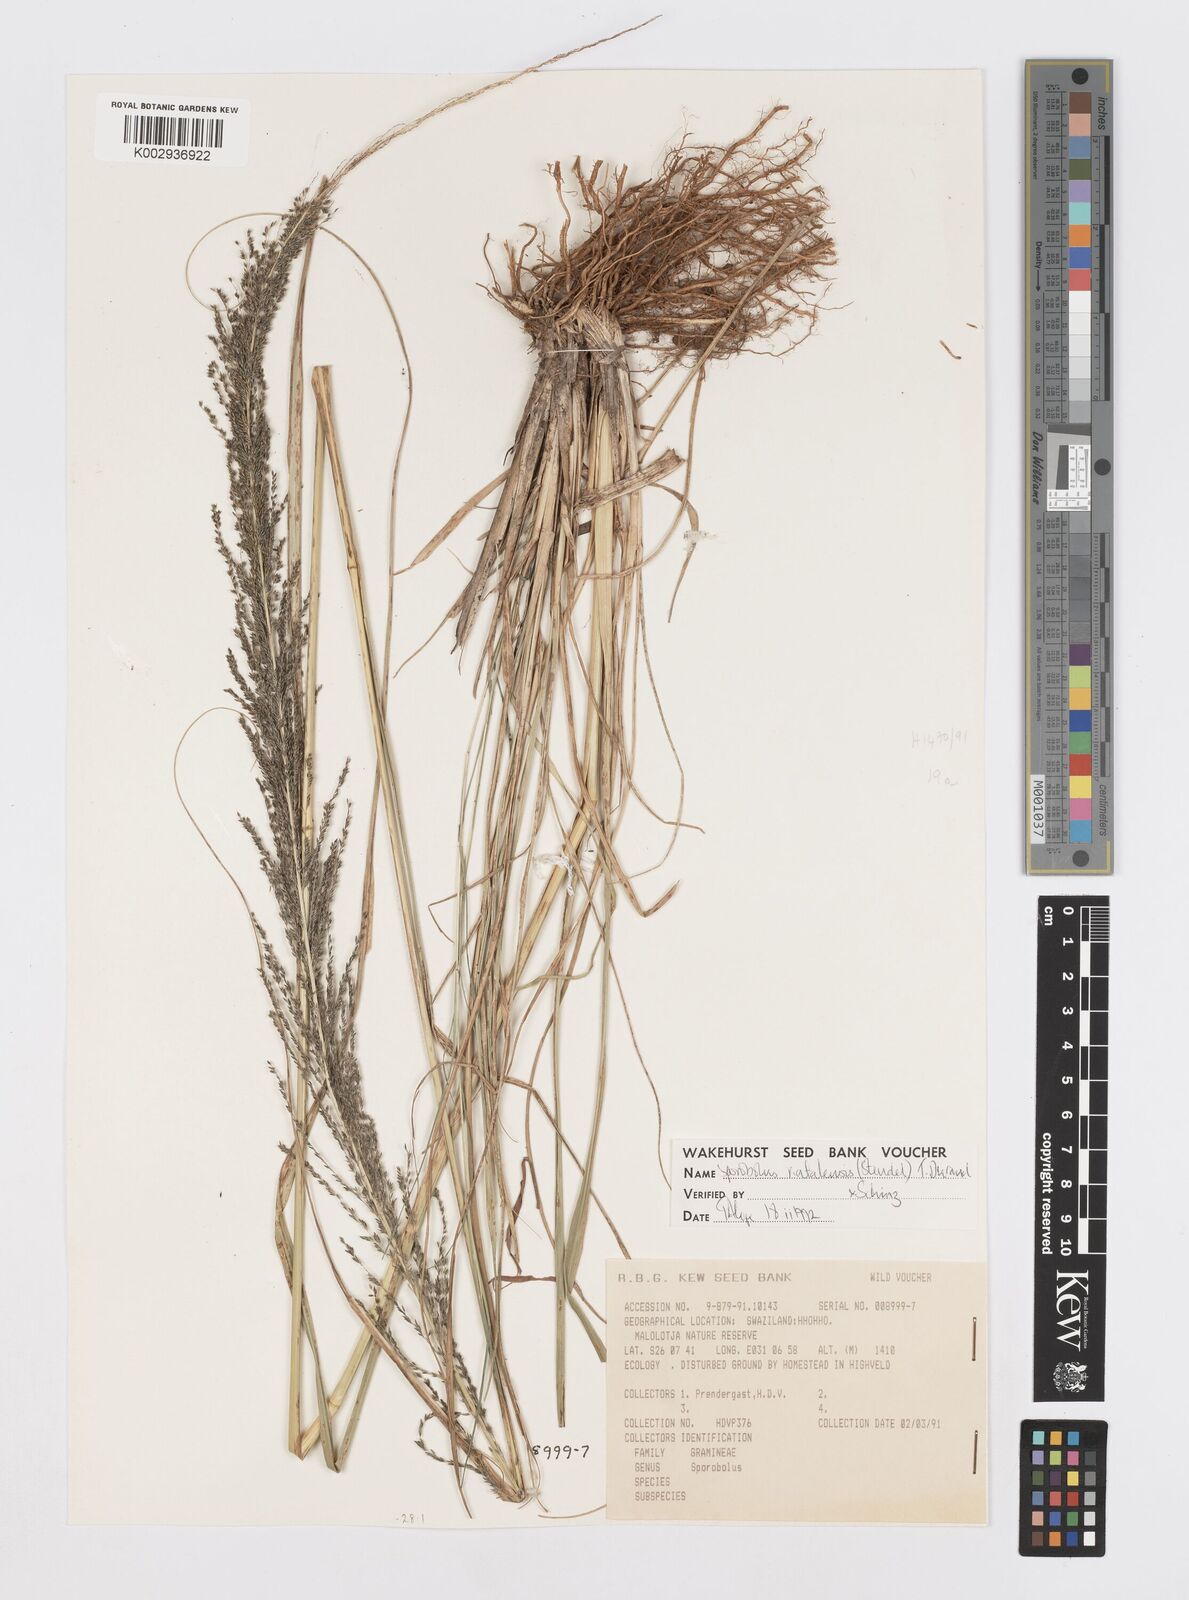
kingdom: Plantae
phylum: Tracheophyta
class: Liliopsida
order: Poales
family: Poaceae
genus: Sporobolus
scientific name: Sporobolus natalensis
